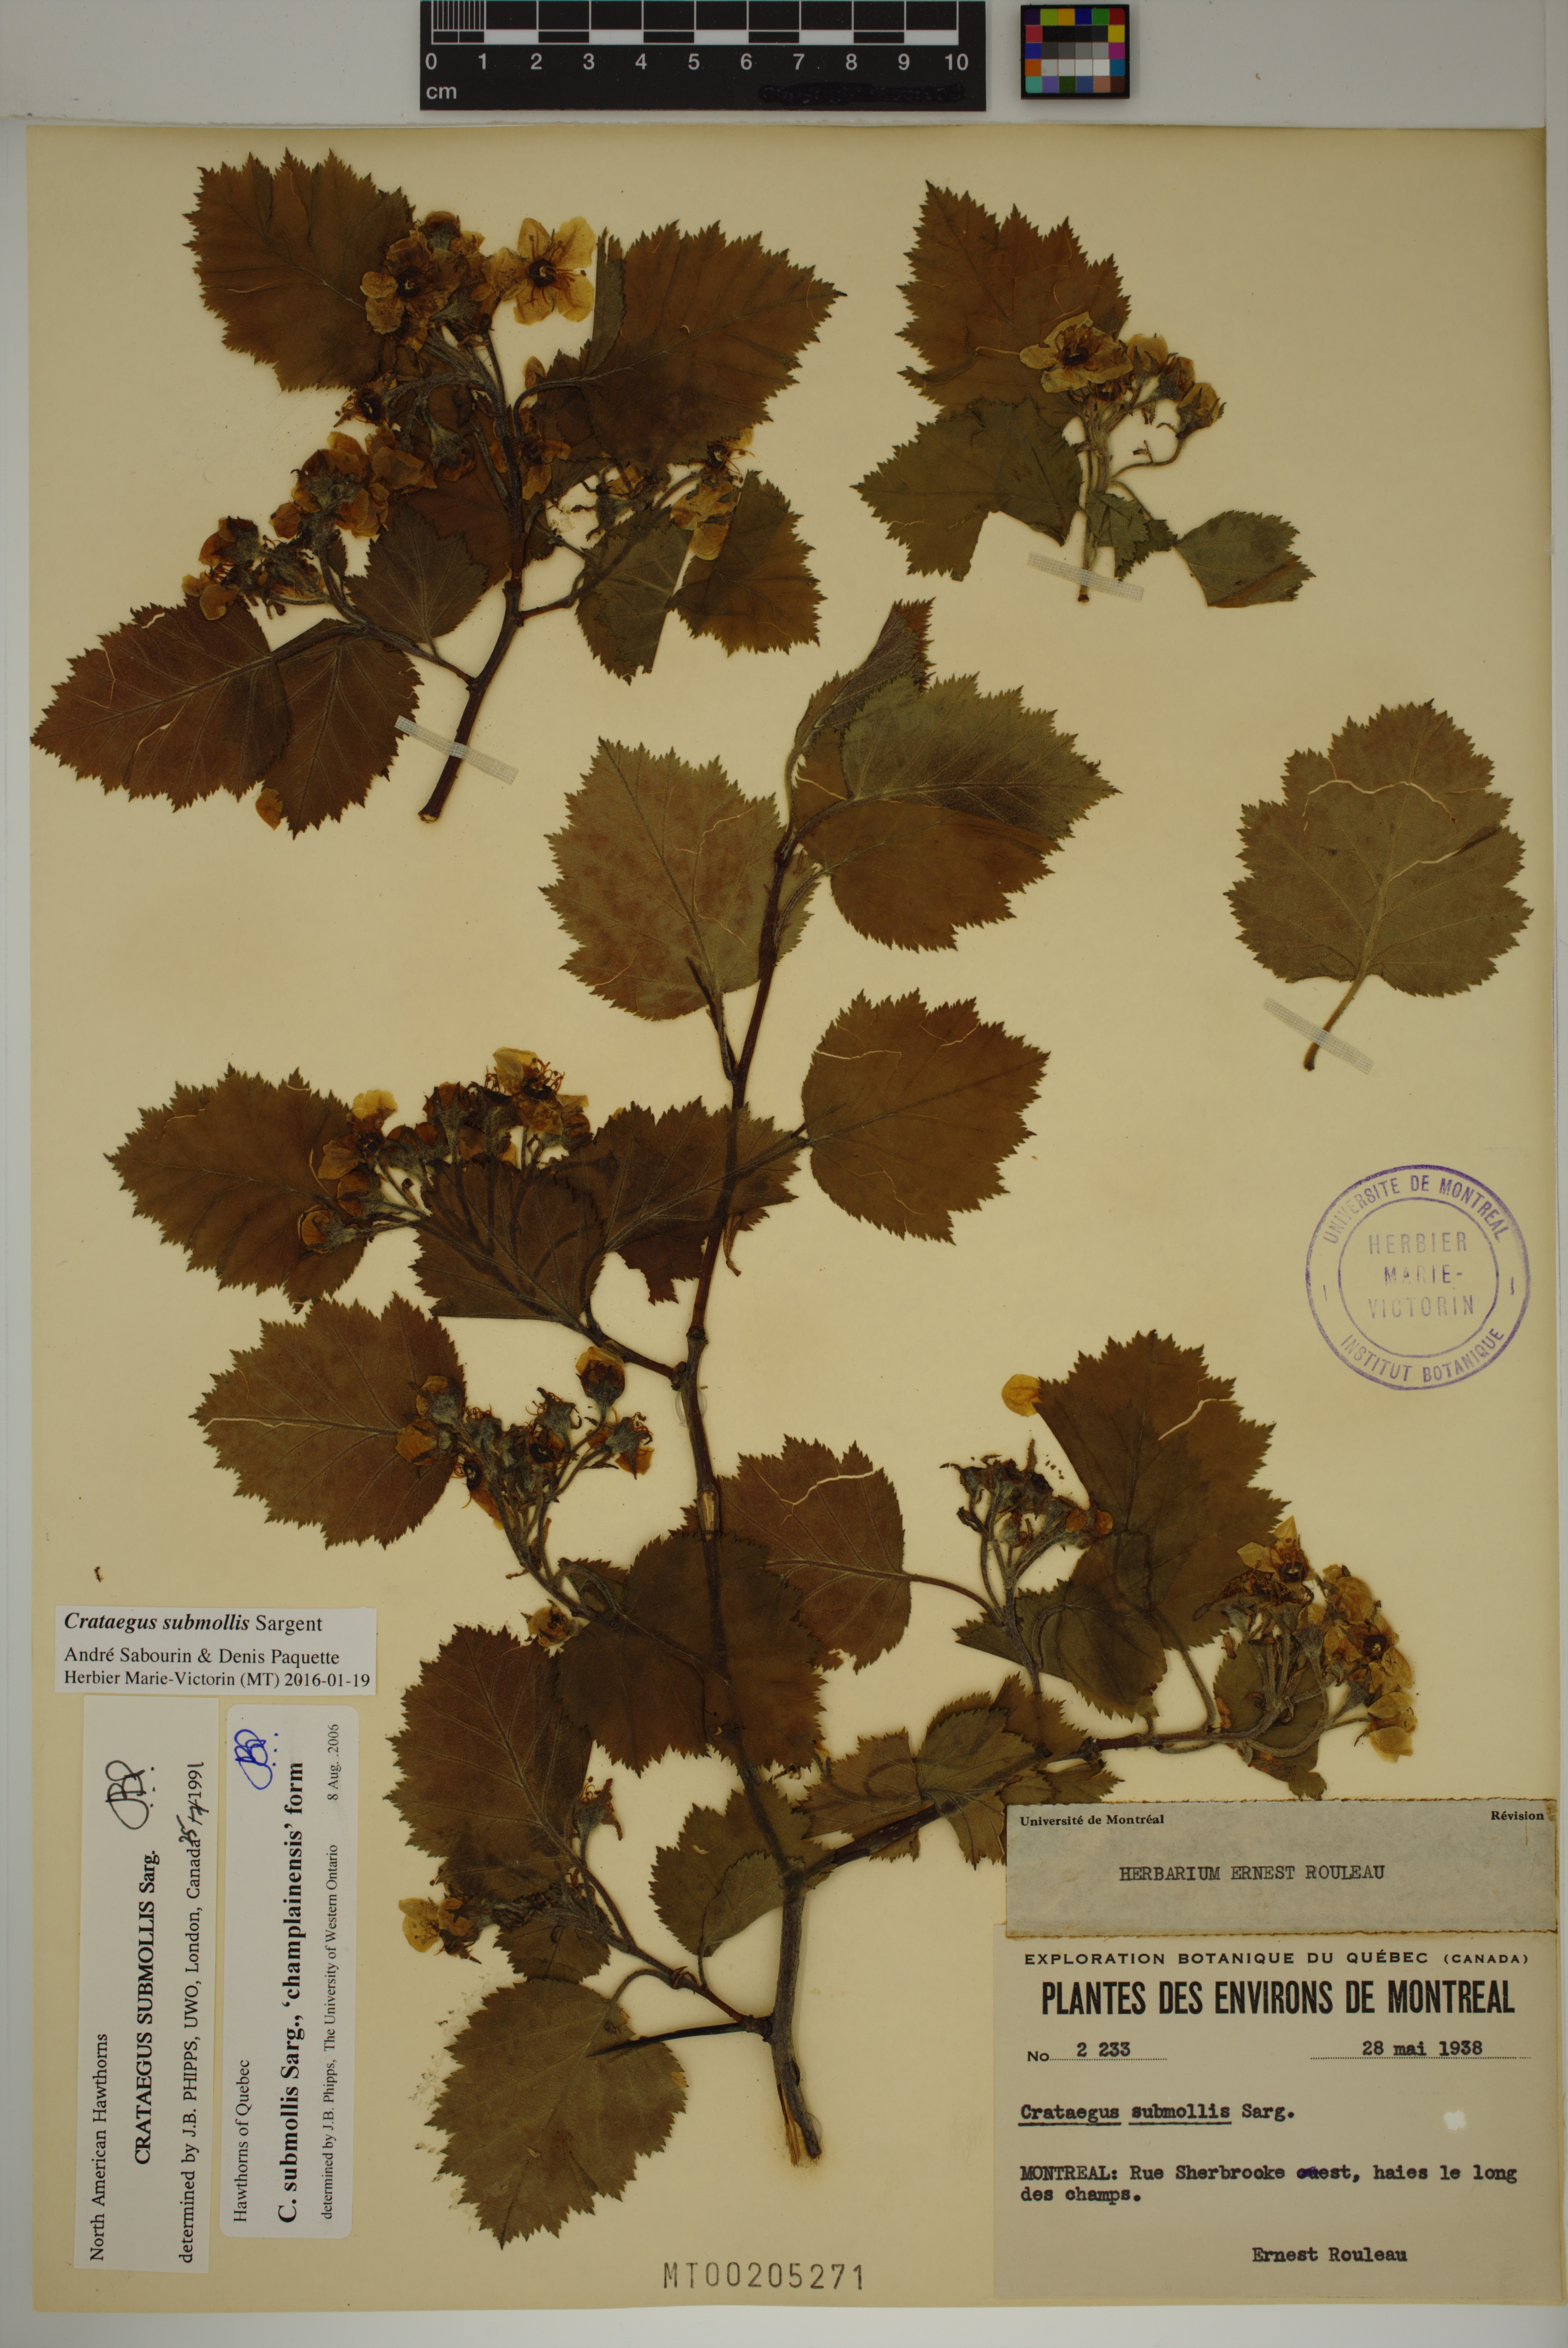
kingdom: Plantae
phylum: Tracheophyta
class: Magnoliopsida
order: Rosales
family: Rosaceae
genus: Crataegus
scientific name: Crataegus submollis
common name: Hairy cockspurthorn
